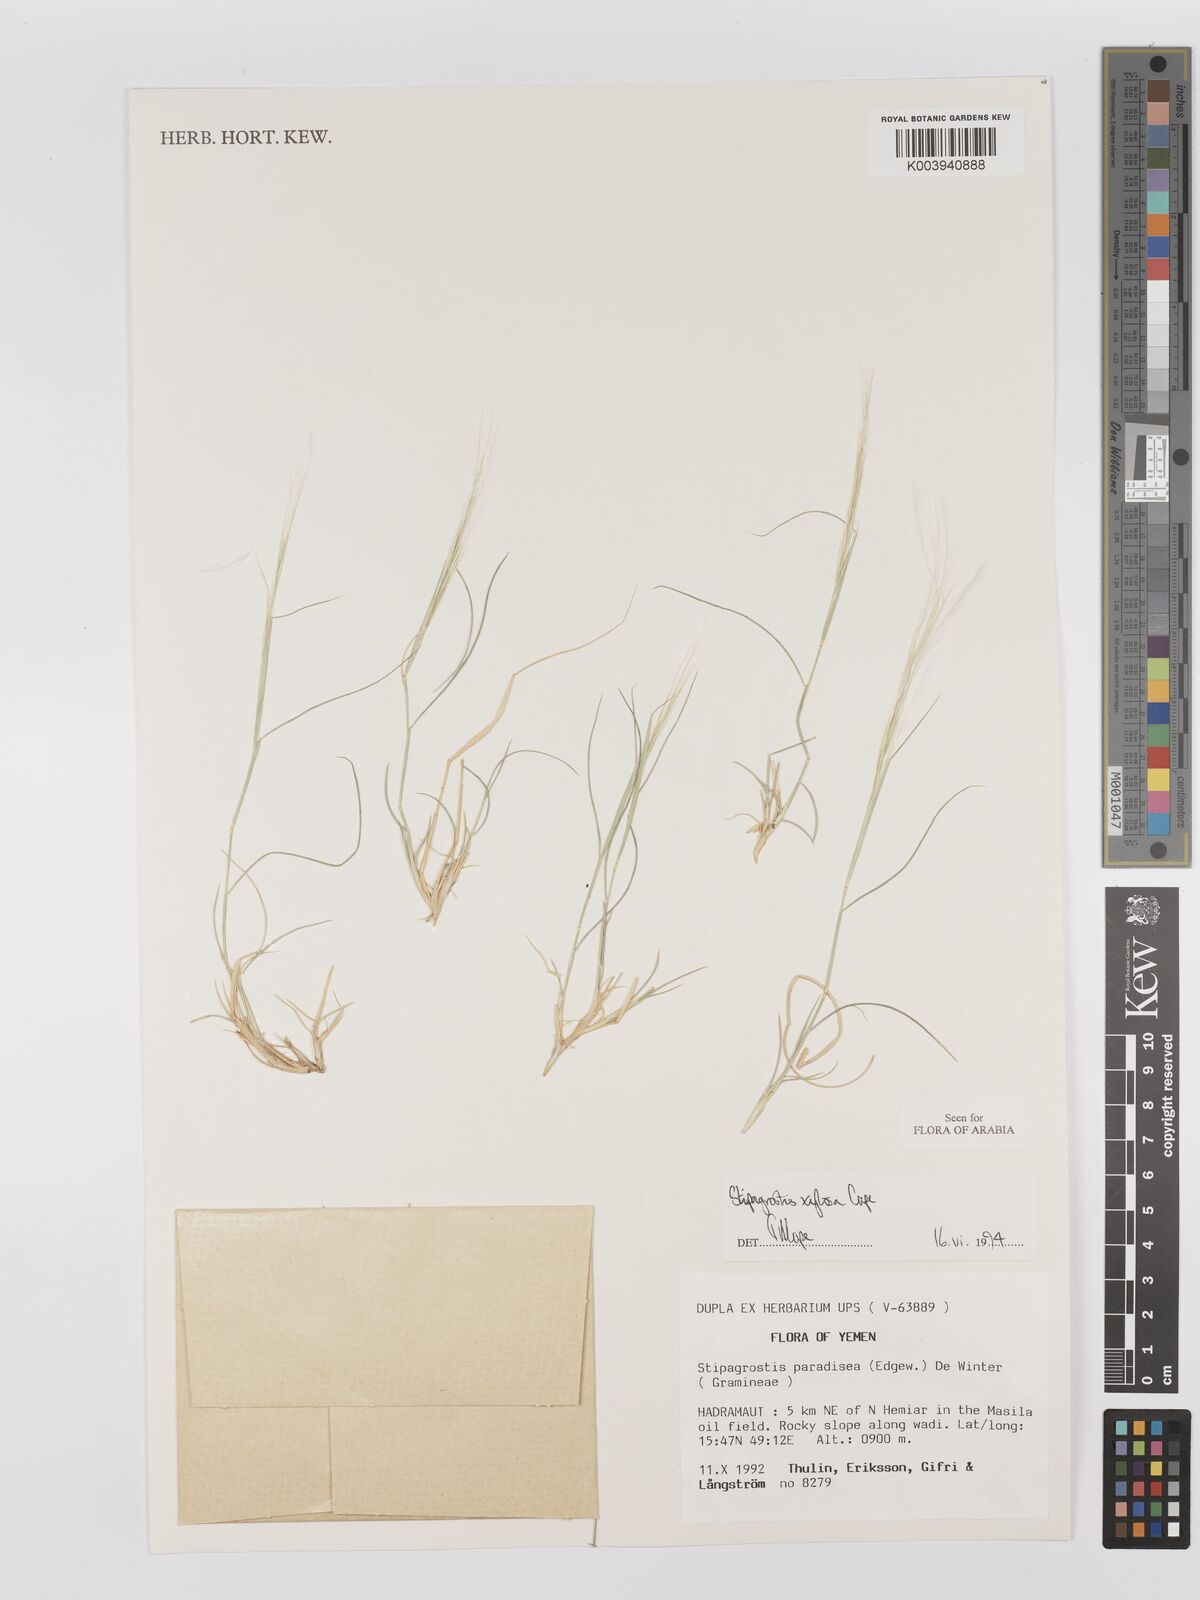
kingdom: Plantae
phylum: Tracheophyta
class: Liliopsida
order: Poales
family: Poaceae
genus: Stipagrostis
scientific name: Stipagrostis xylosa
